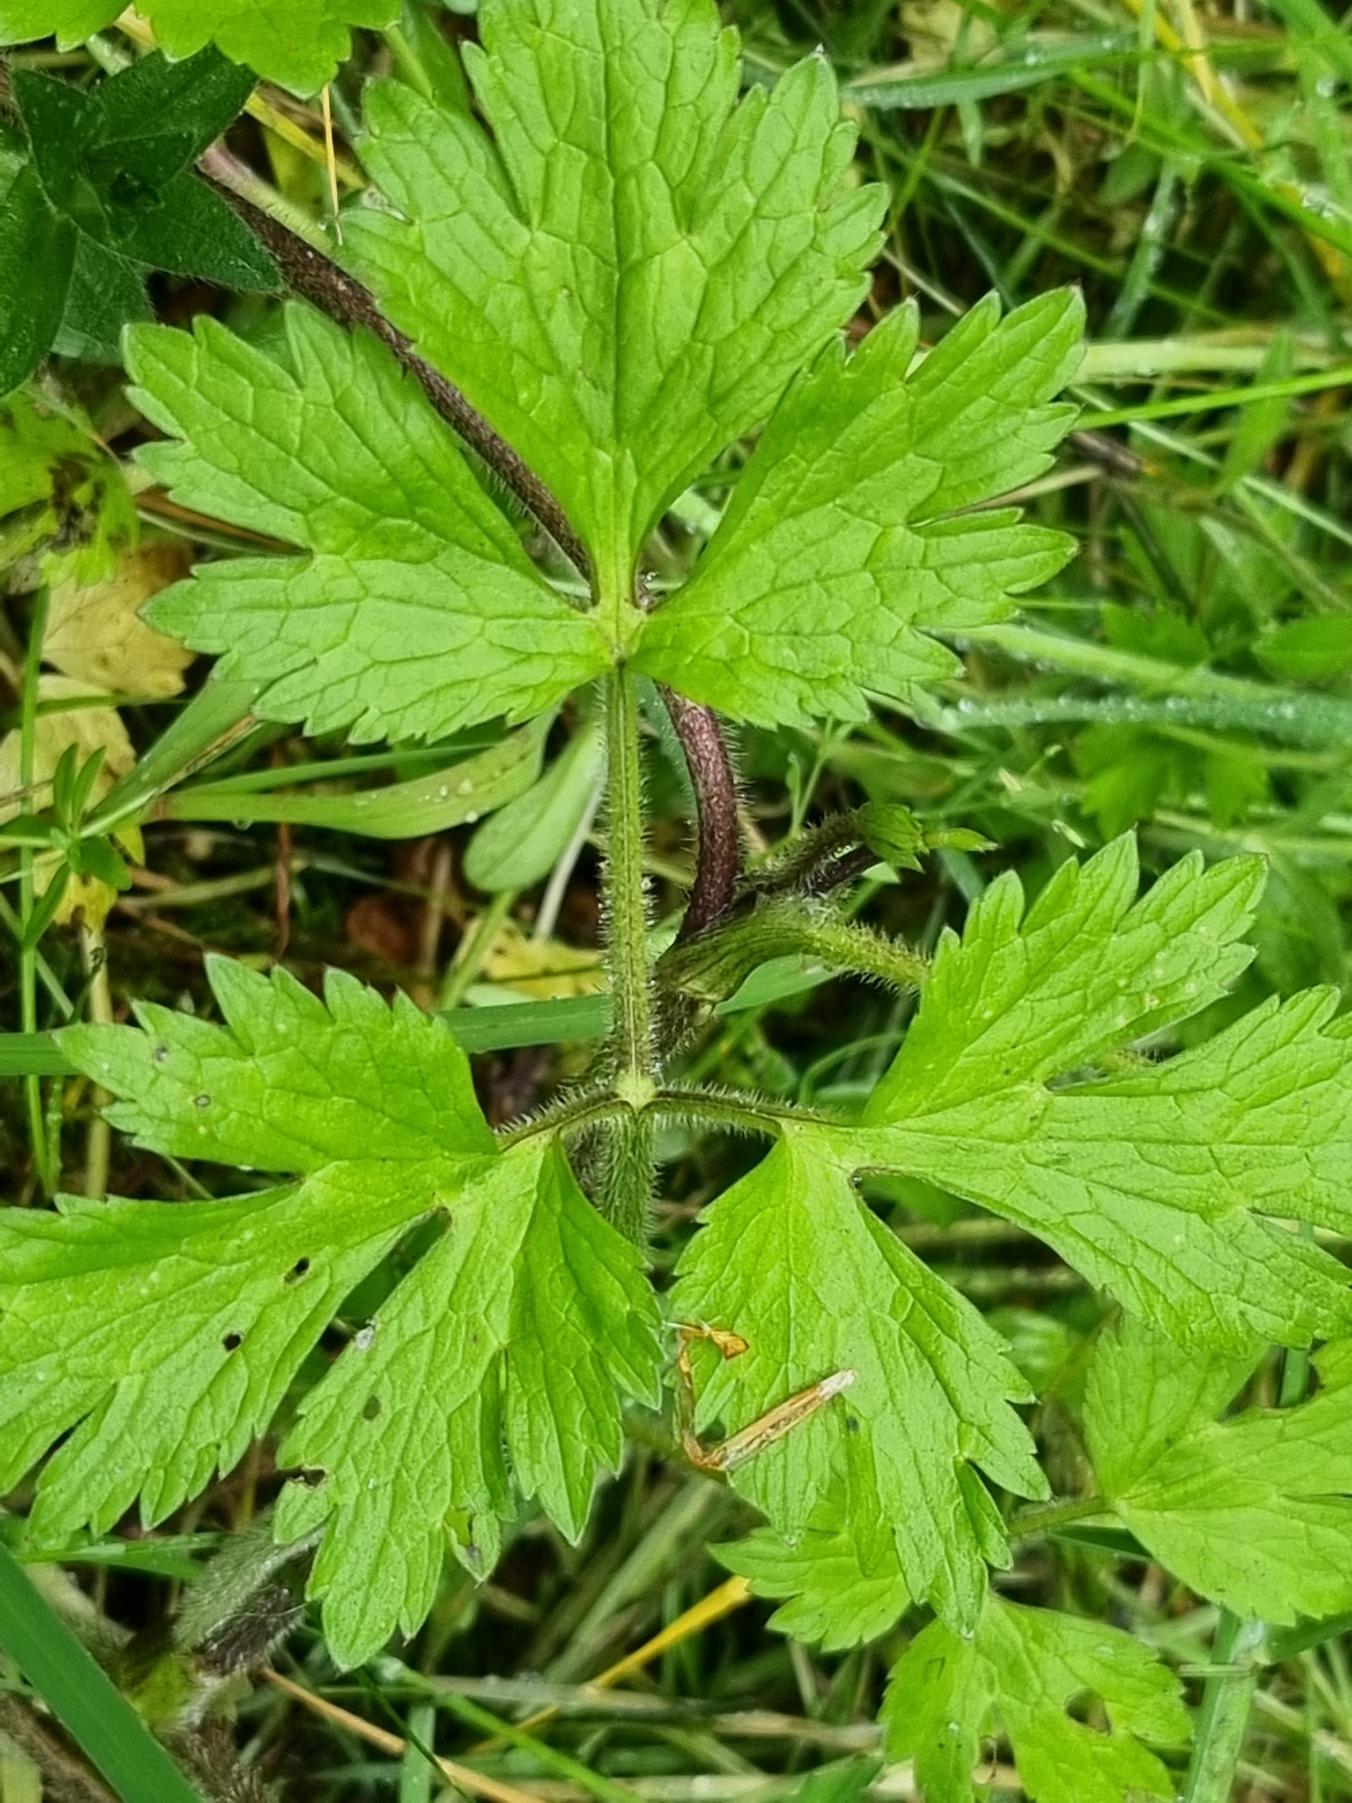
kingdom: Plantae
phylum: Tracheophyta
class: Magnoliopsida
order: Ranunculales
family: Ranunculaceae
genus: Ranunculus
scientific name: Ranunculus repens
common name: Lav ranunkel
